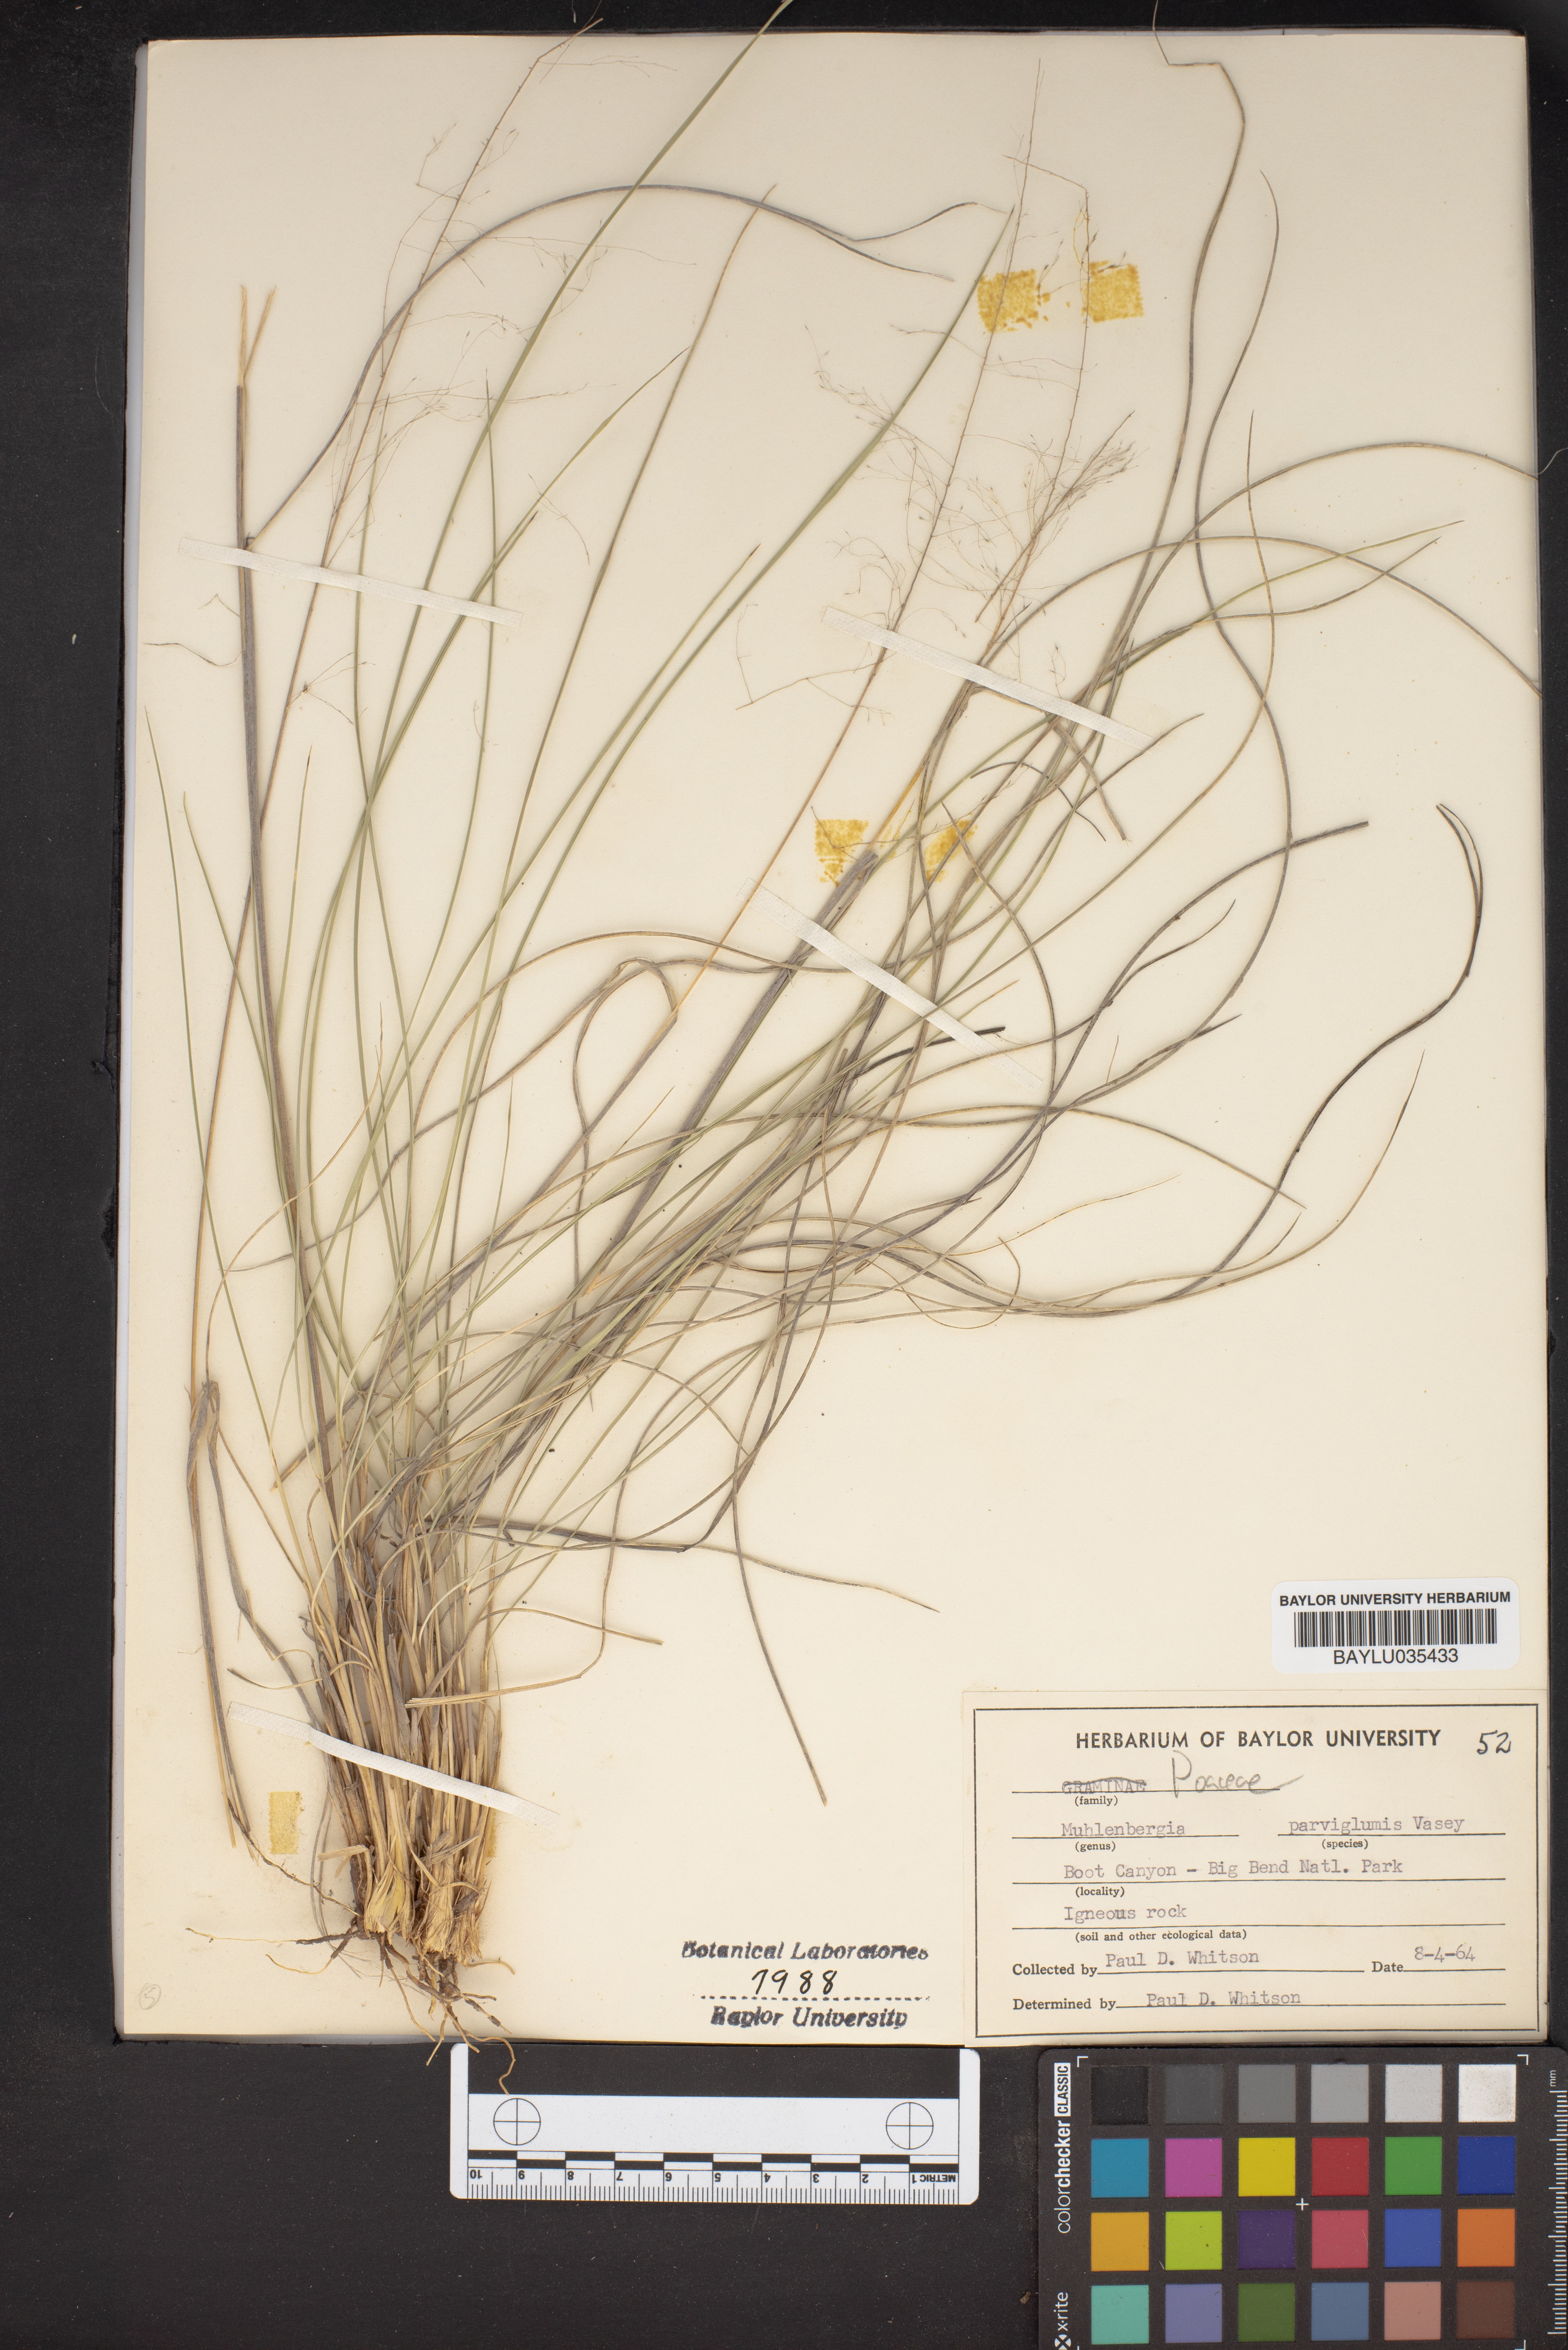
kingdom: Plantae
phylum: Tracheophyta
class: Liliopsida
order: Poales
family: Poaceae
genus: Muhlenbergia
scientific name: Muhlenbergia spiciformis
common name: Longawn muhly
